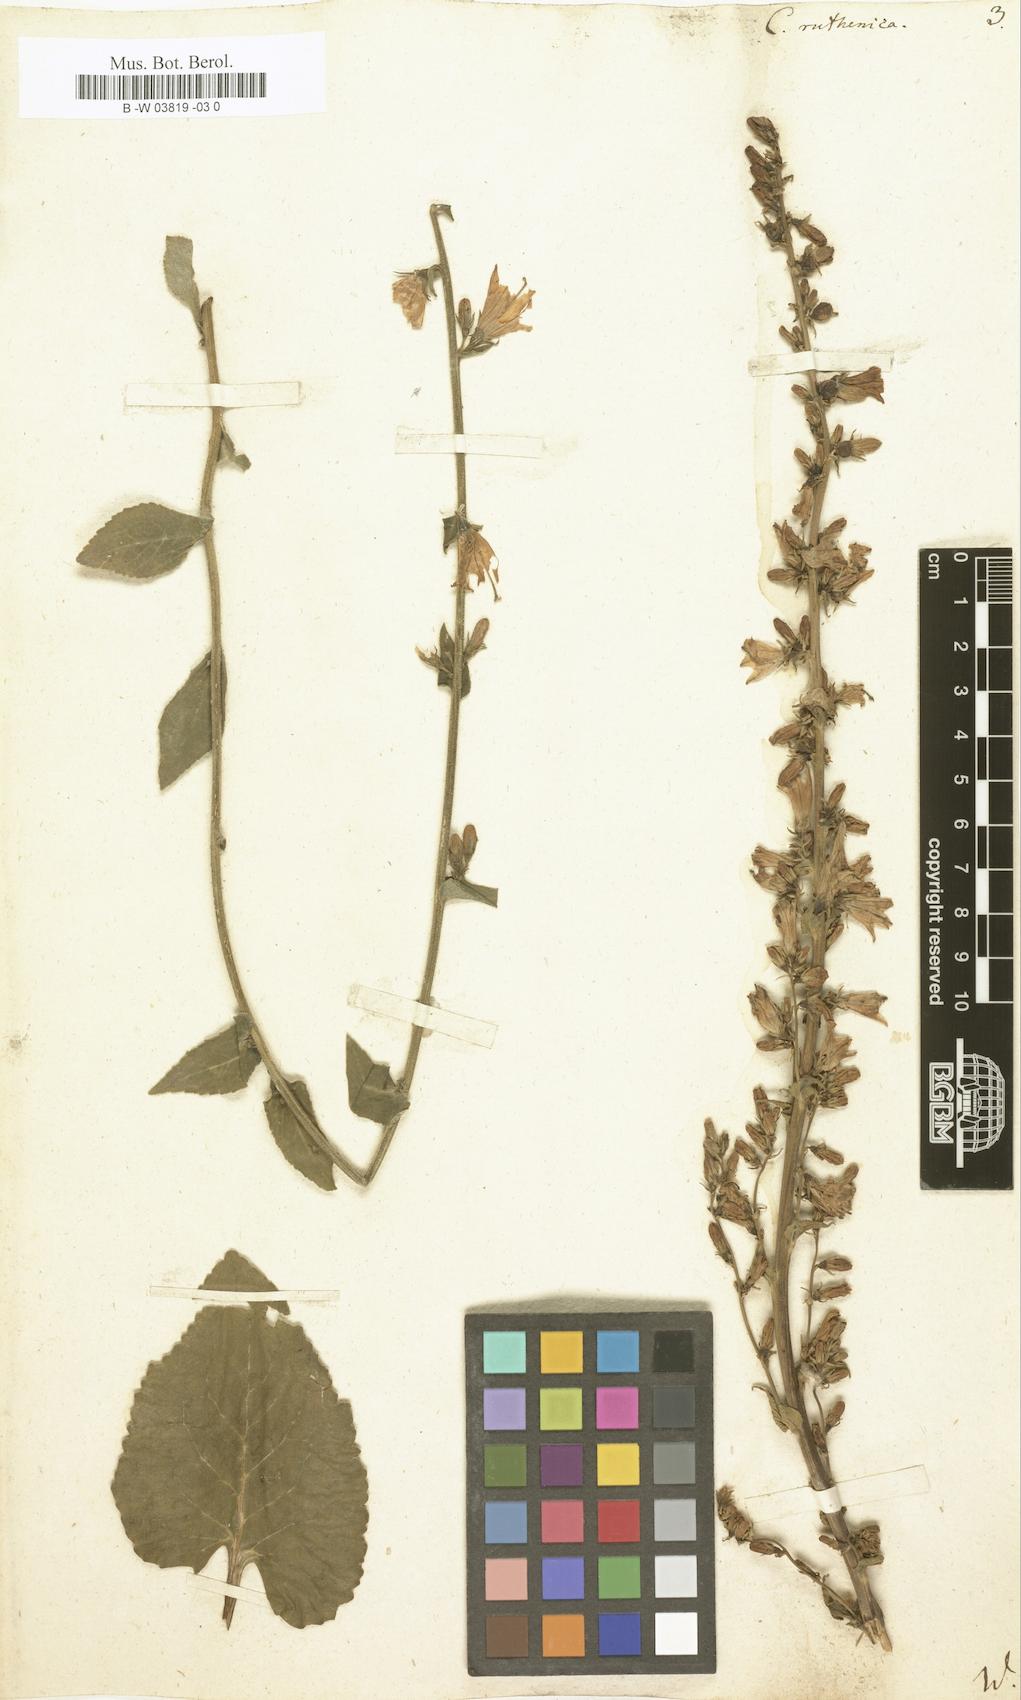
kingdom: Plantae
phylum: Tracheophyta
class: Magnoliopsida
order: Asterales
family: Campanulaceae
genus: Campanula
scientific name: Campanula bononiensis
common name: Pale bellflower
